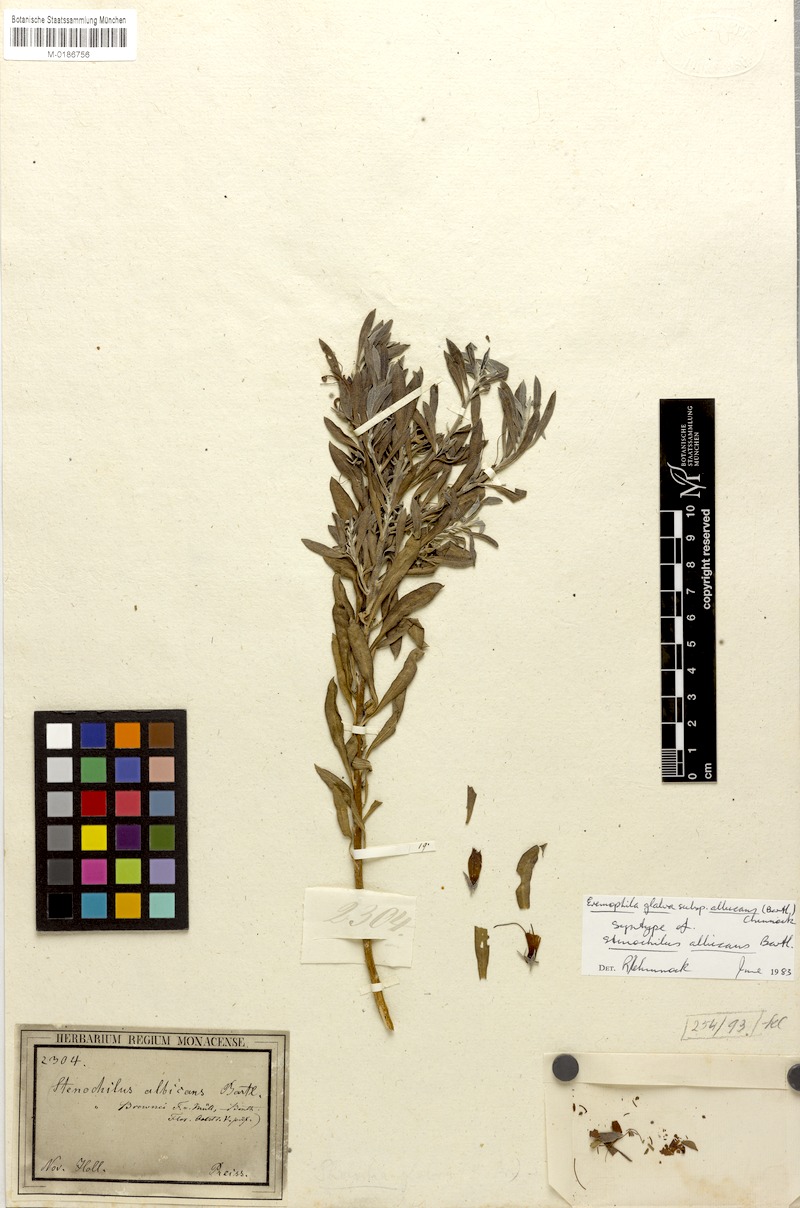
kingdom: Plantae
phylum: Tracheophyta
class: Magnoliopsida
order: Lamiales
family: Scrophulariaceae
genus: Eremophila
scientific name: Eremophila glabra
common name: Black-fuchsia
